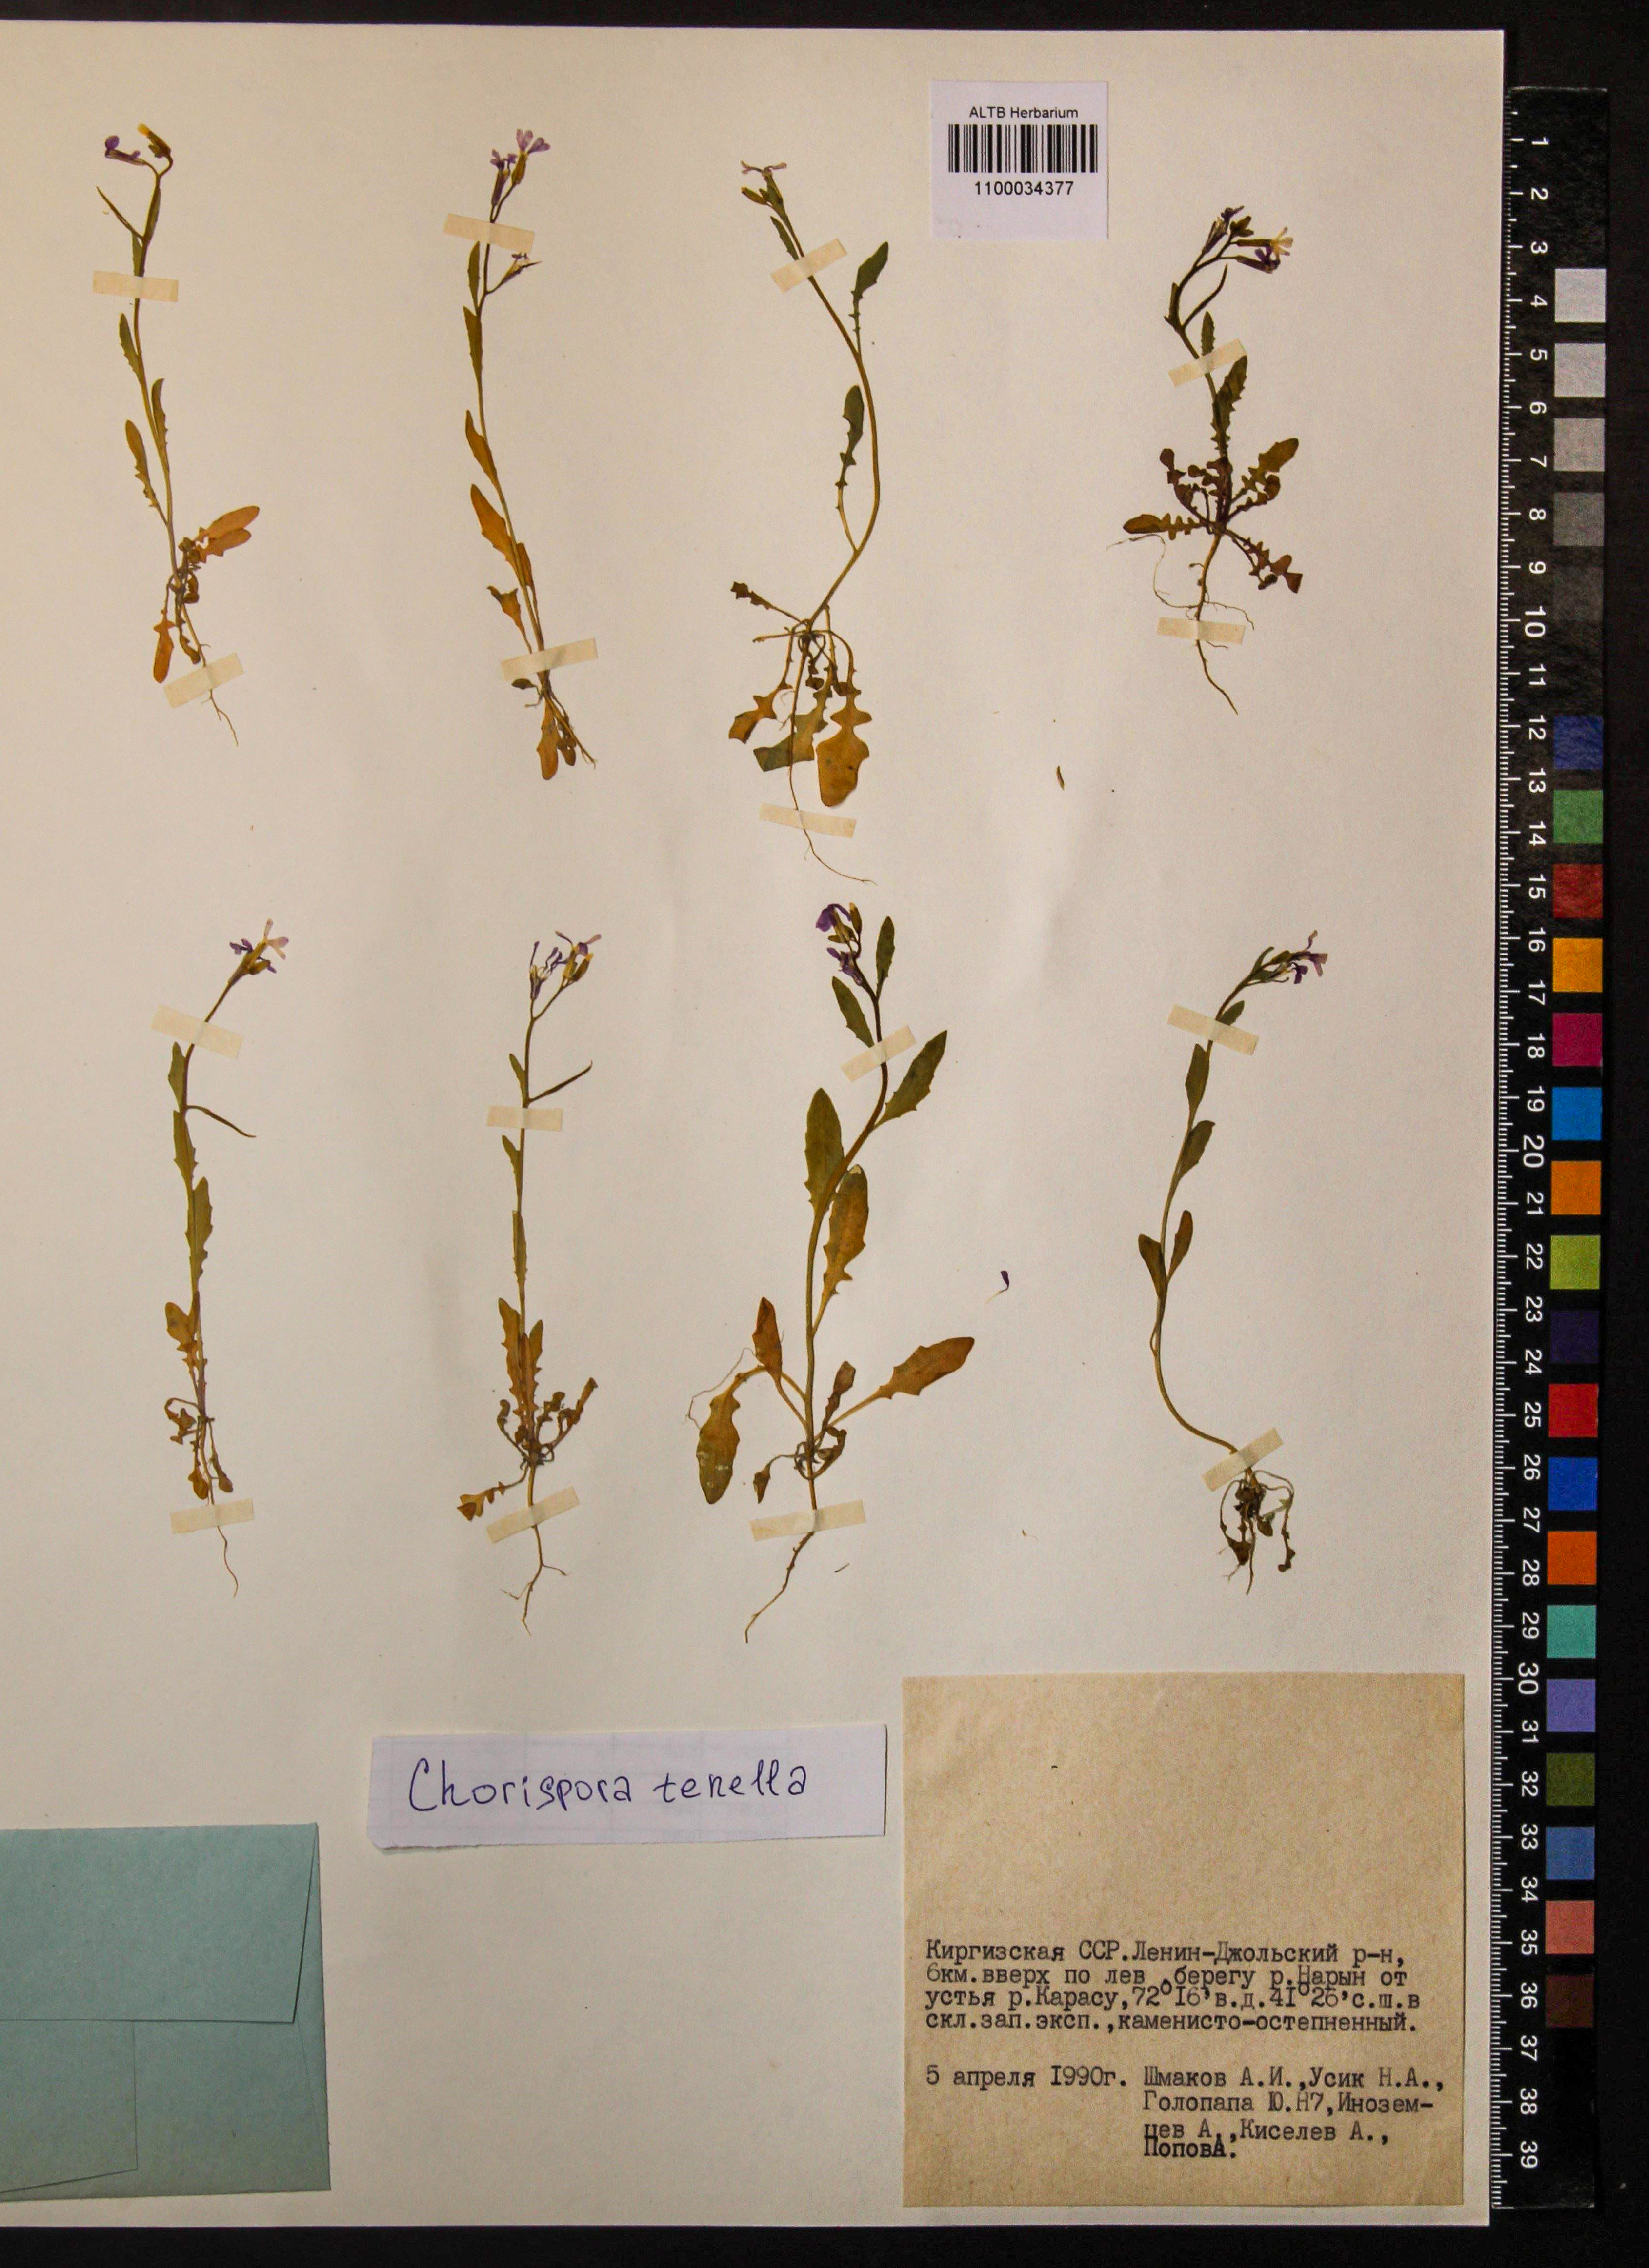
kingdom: Plantae
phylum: Tracheophyta
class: Magnoliopsida
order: Brassicales
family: Brassicaceae
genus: Chorispora
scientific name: Chorispora tenella
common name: Crossflower
